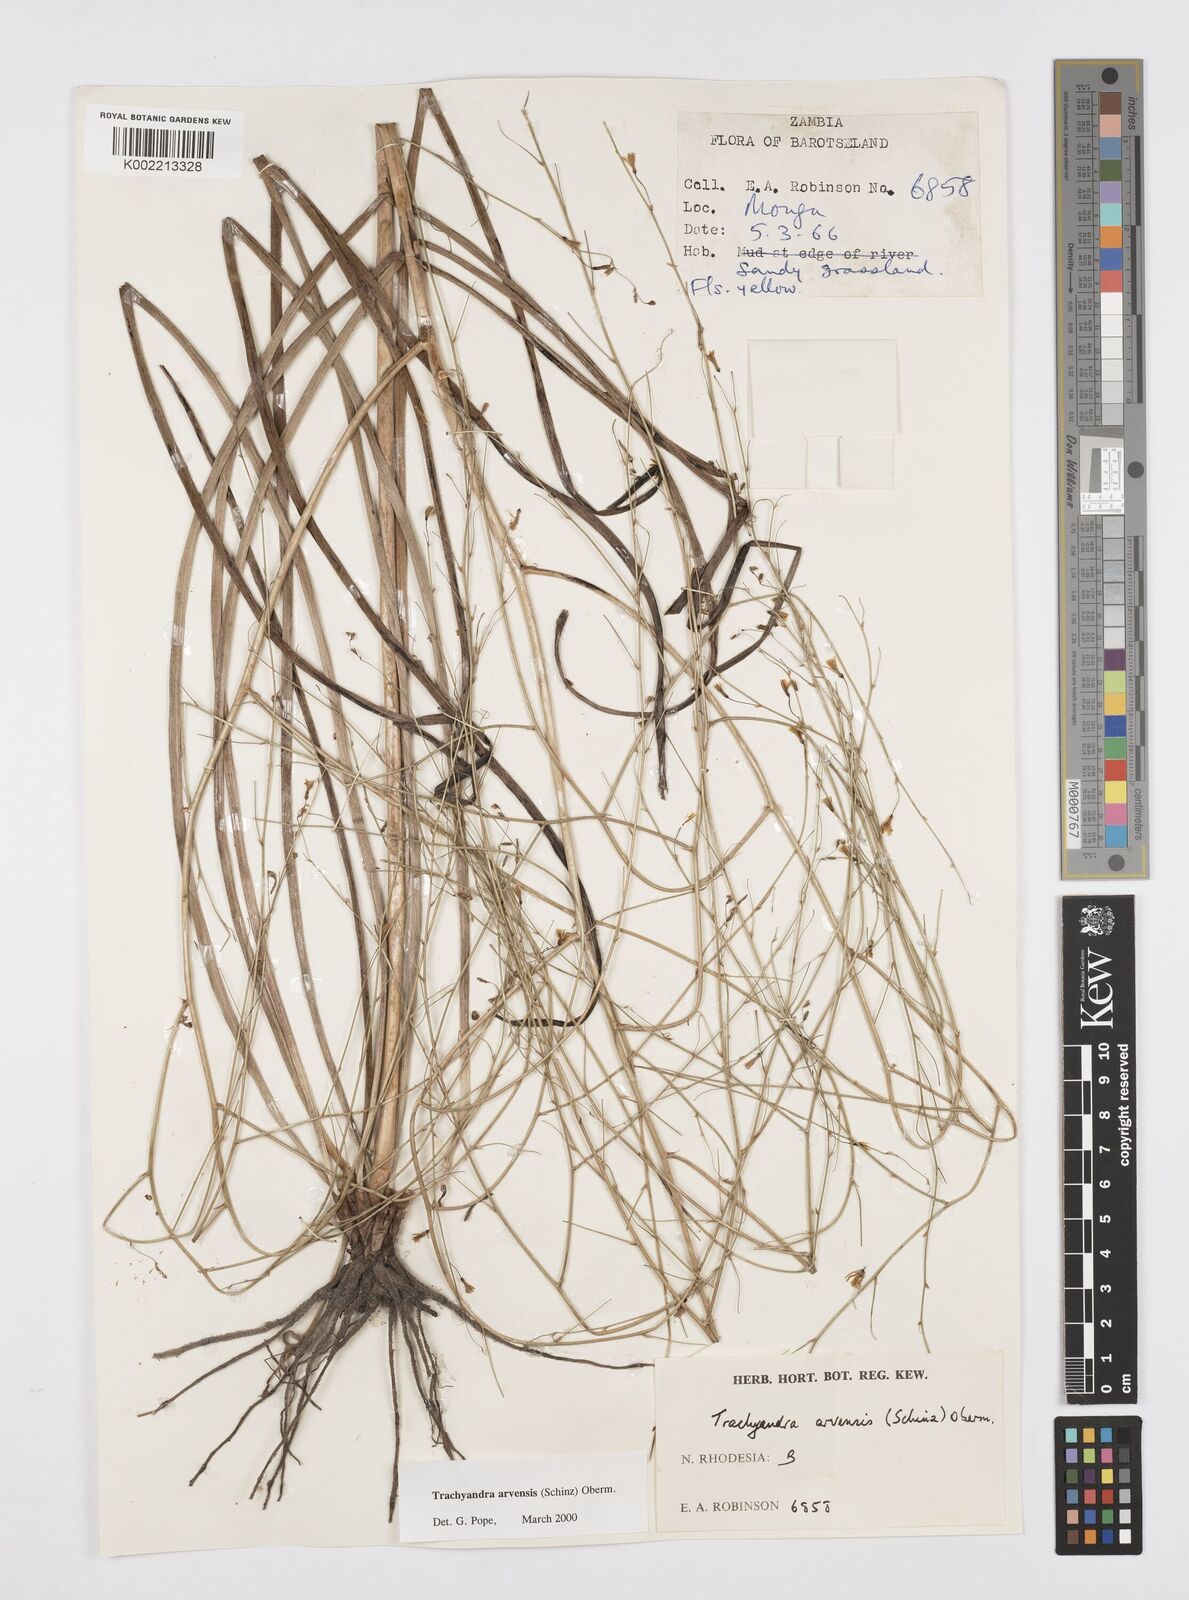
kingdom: Plantae
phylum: Tracheophyta
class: Liliopsida
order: Asparagales
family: Asphodelaceae
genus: Trachyandra
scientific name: Trachyandra arvensis
